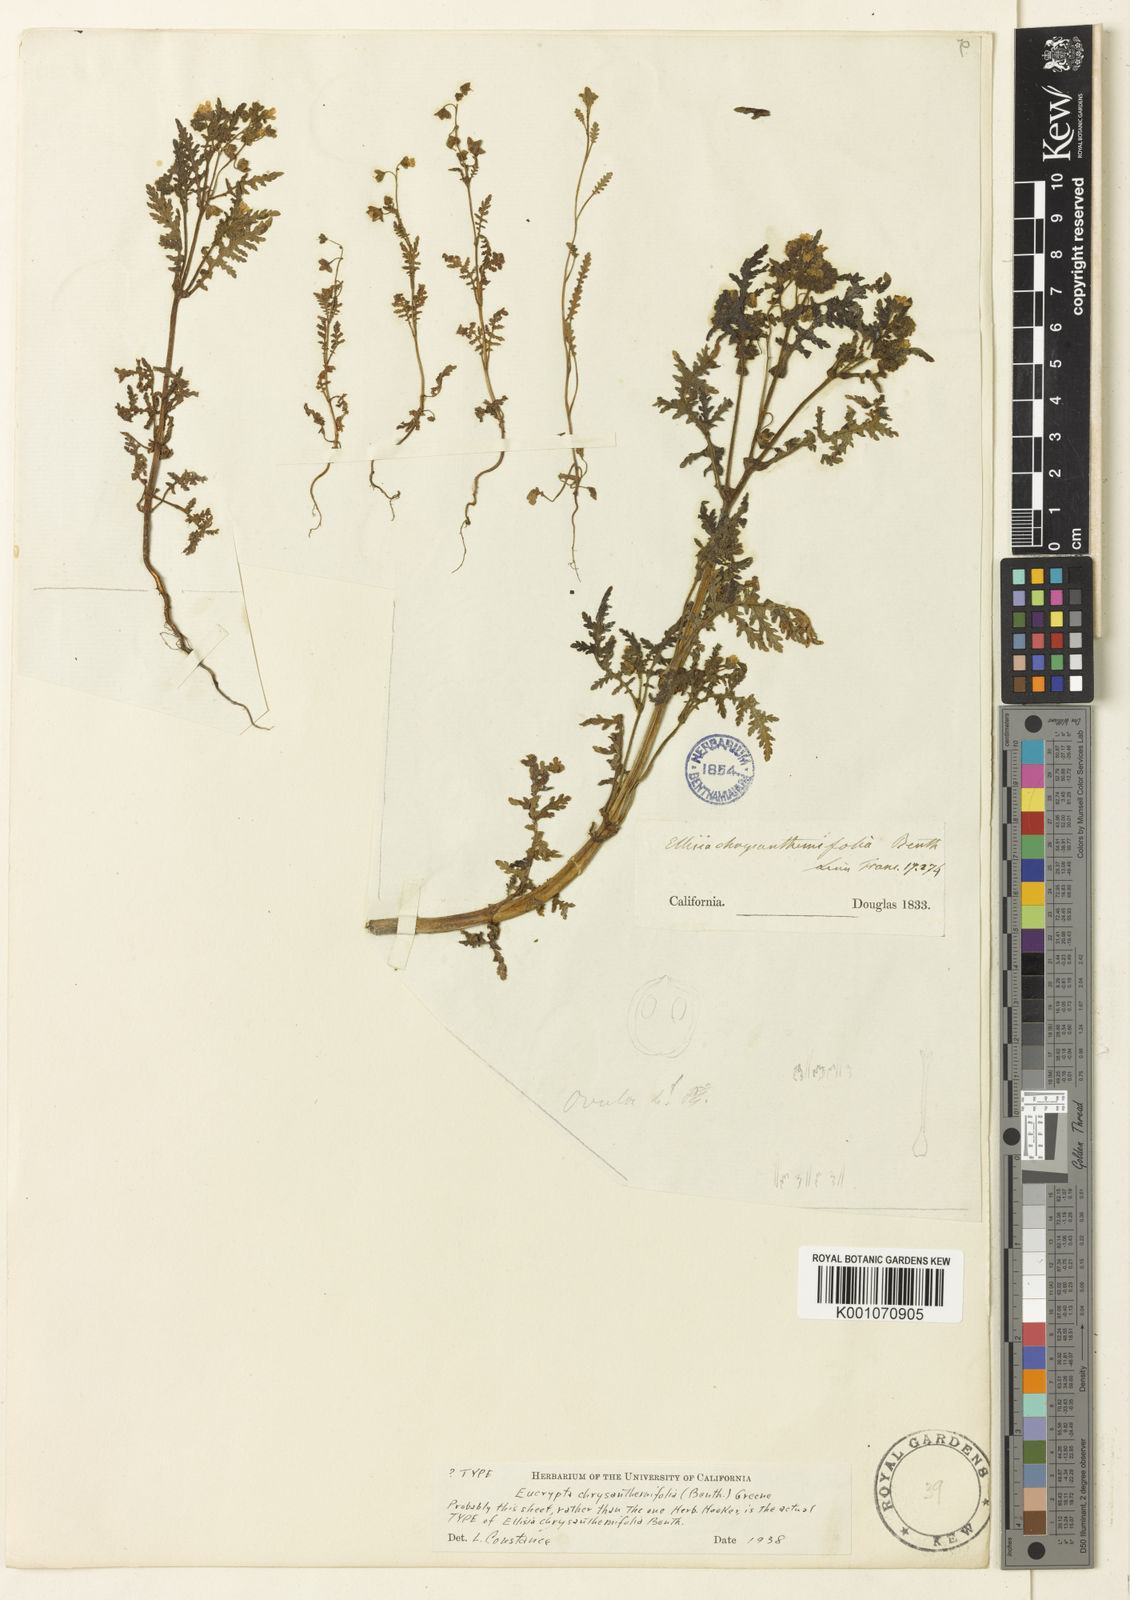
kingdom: Plantae
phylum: Tracheophyta
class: Magnoliopsida
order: Boraginales
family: Hydrophyllaceae
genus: Eucrypta
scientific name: Eucrypta chrysanthemifolia
